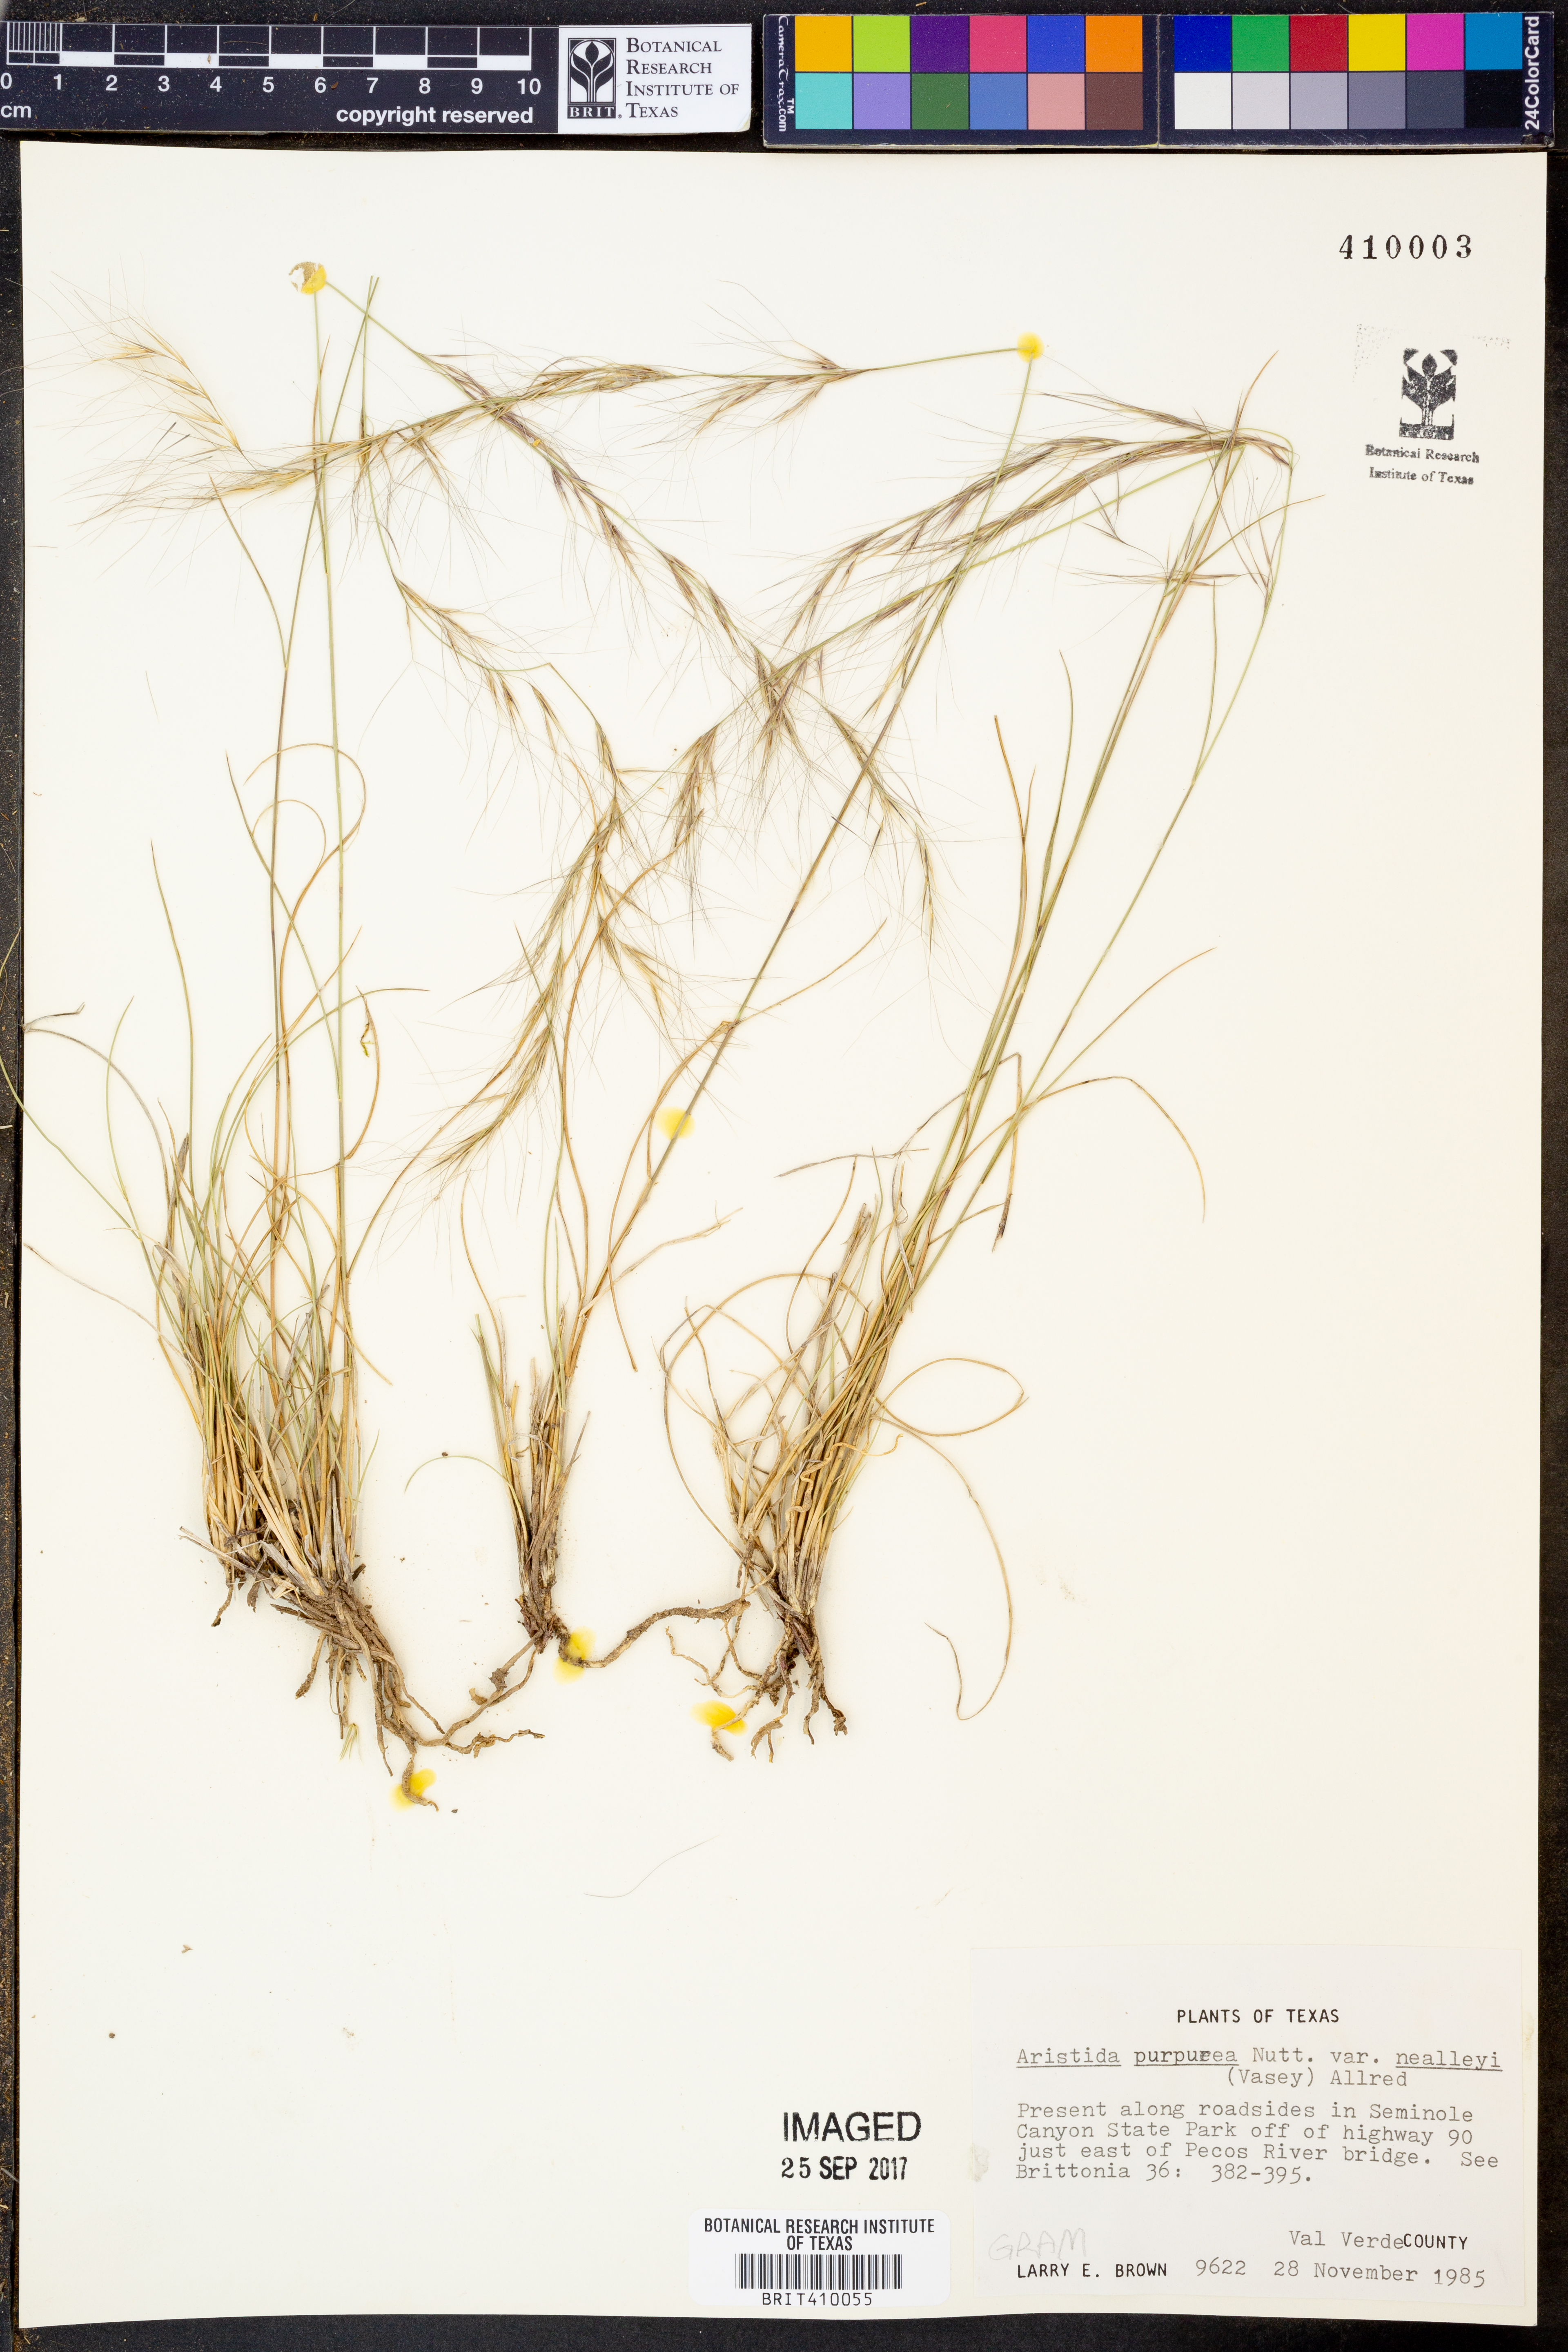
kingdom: Plantae
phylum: Tracheophyta
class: Liliopsida
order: Poales
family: Poaceae
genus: Aristida
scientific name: Aristida glauca
